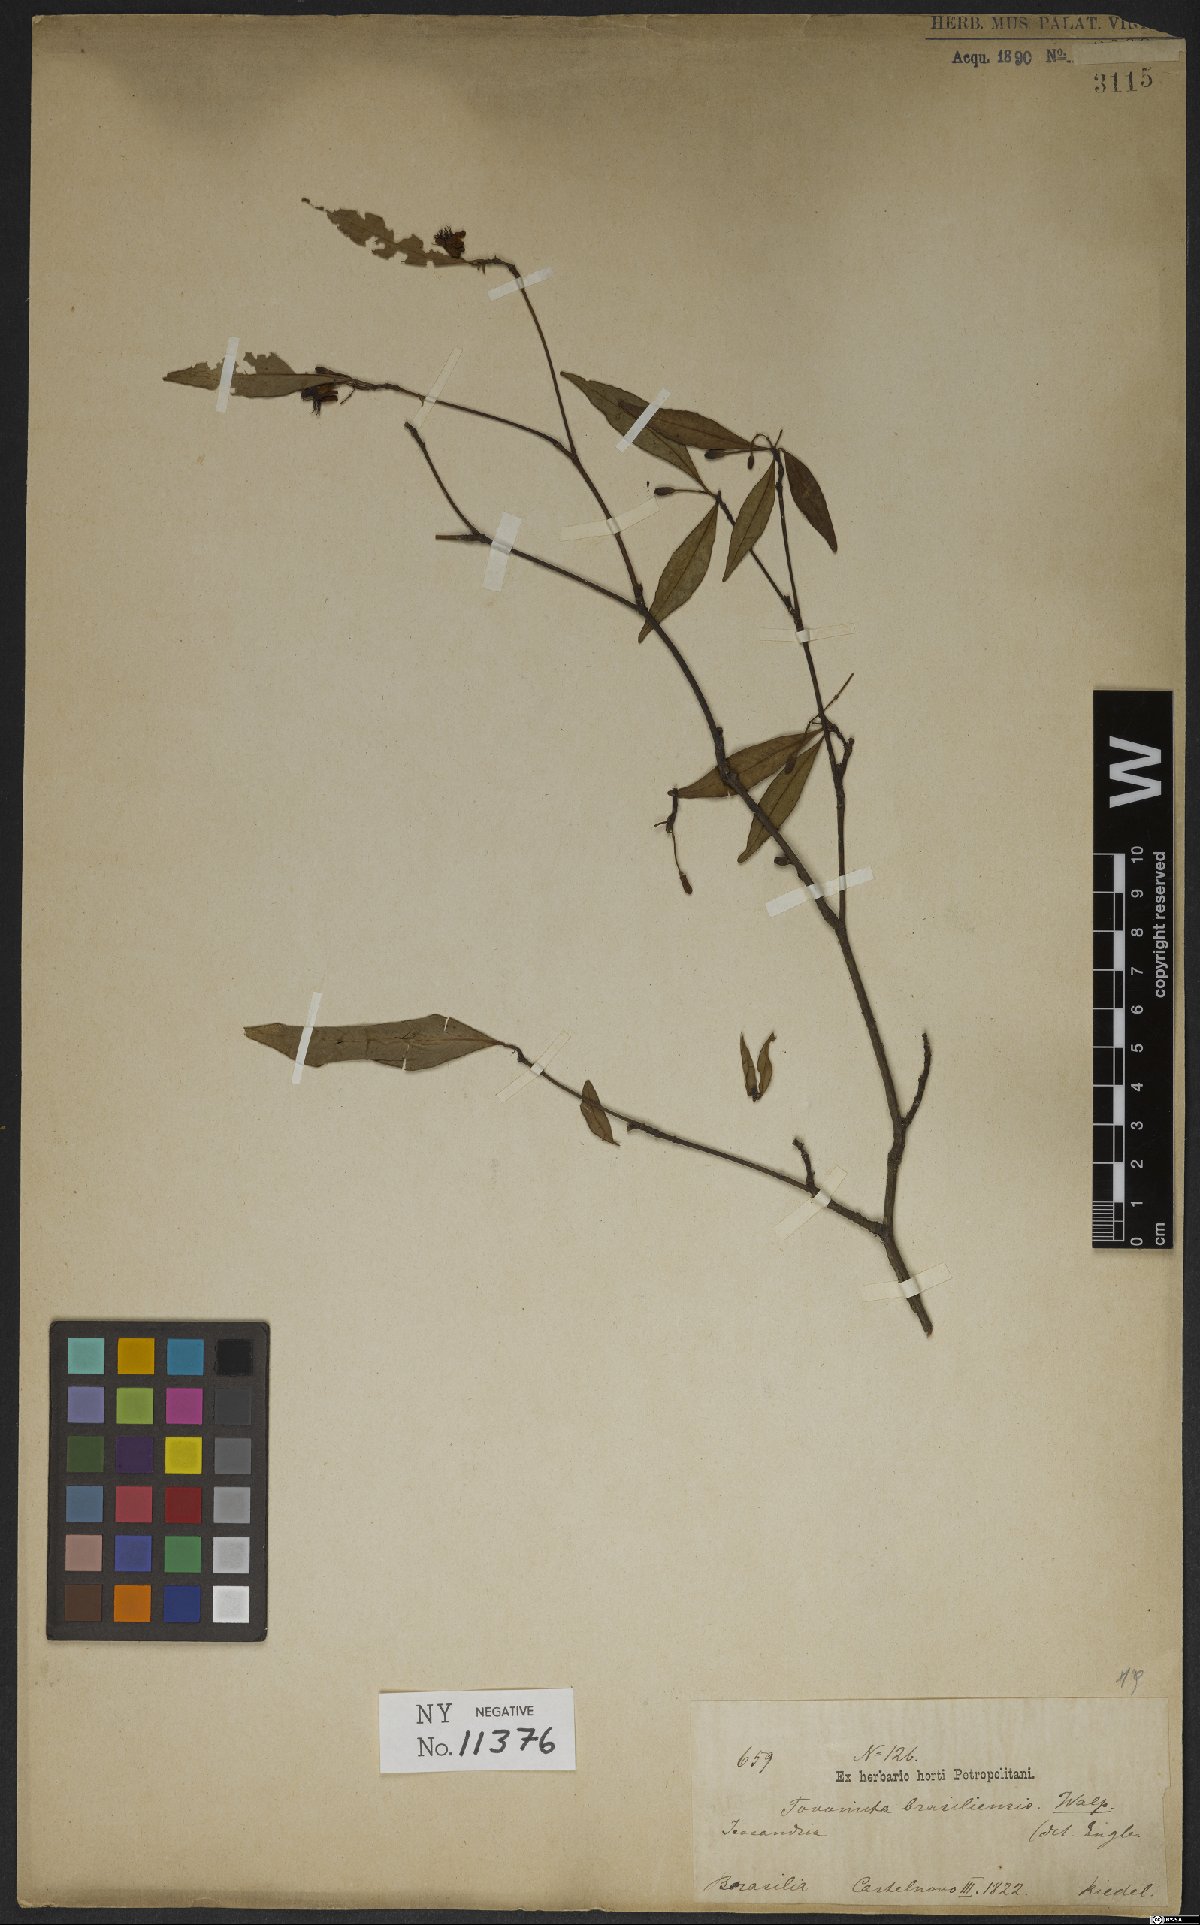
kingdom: Plantae
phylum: Tracheophyta
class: Magnoliopsida
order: Malpighiales
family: Clusiaceae
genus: Tovomita
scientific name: Tovomita fructipendula
